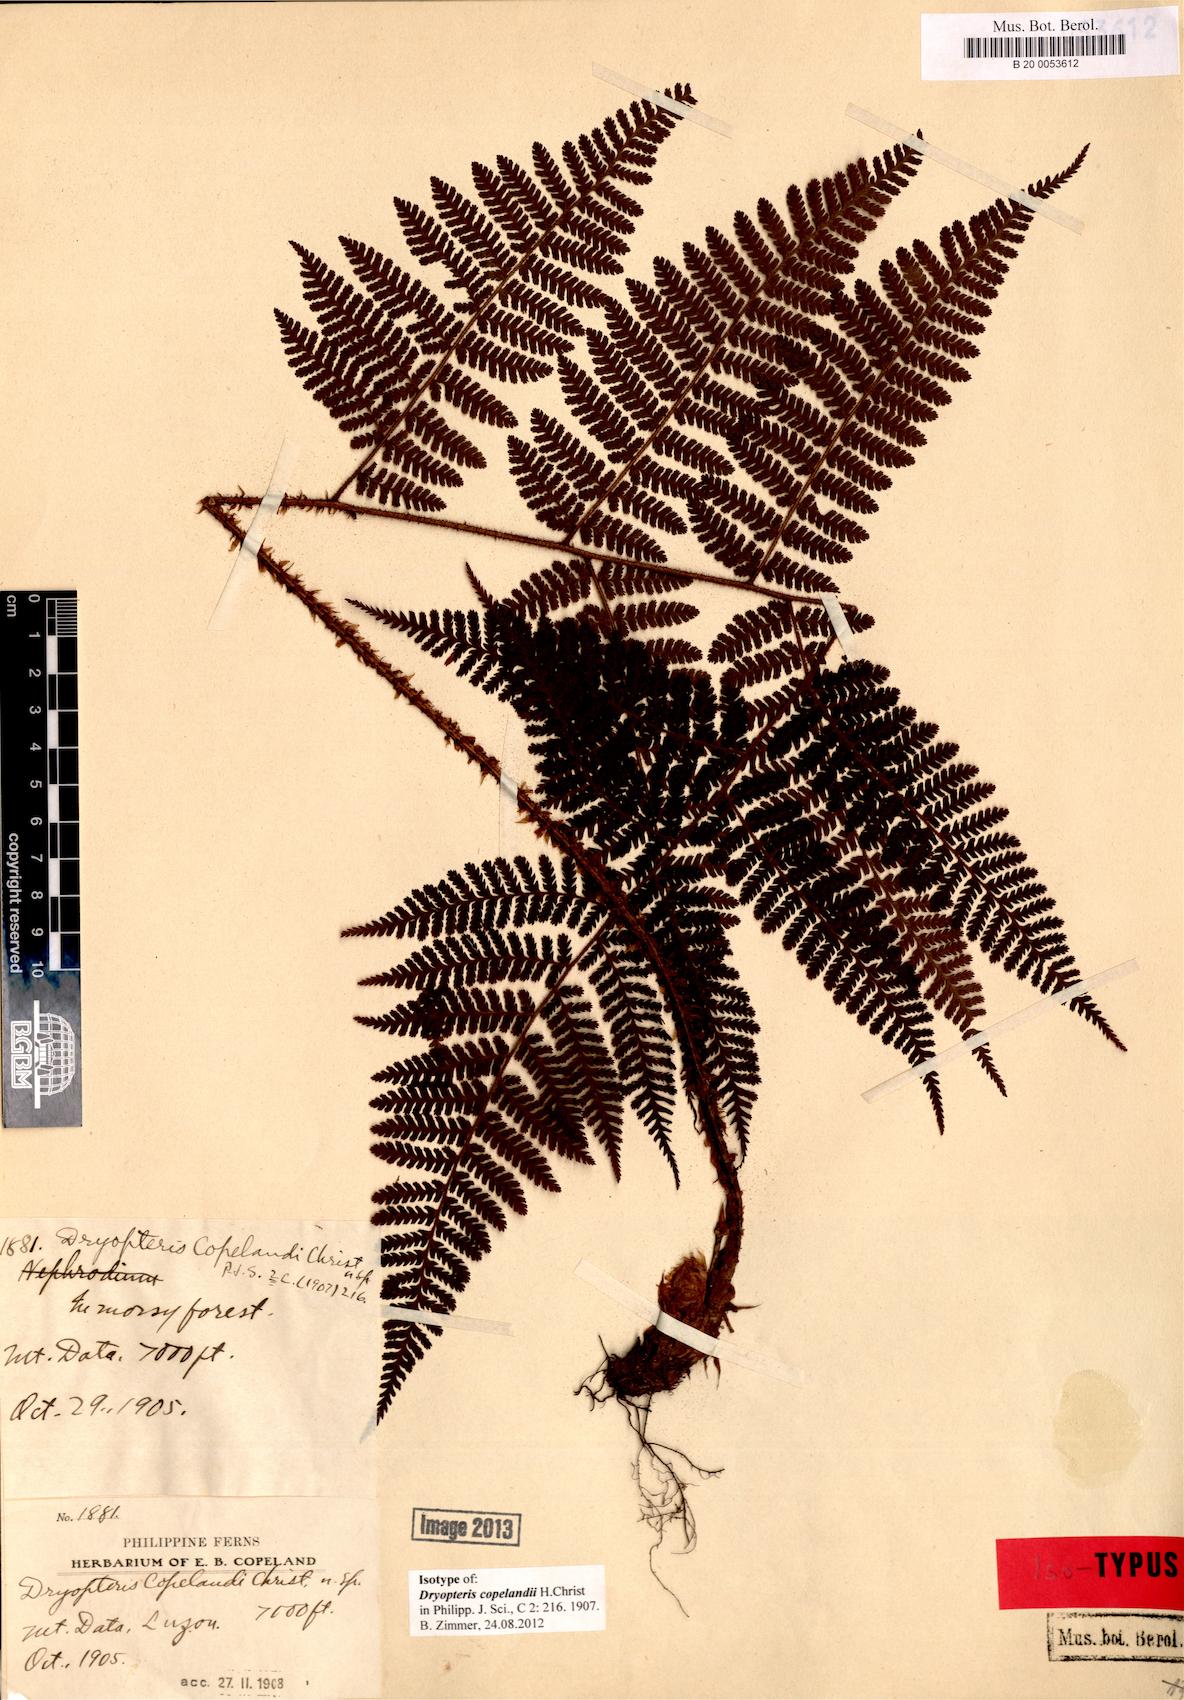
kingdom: Plantae
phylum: Tracheophyta
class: Polypodiopsida
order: Polypodiales
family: Dryopteridaceae
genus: Dryopteris
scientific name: Dryopteris manipurensis
